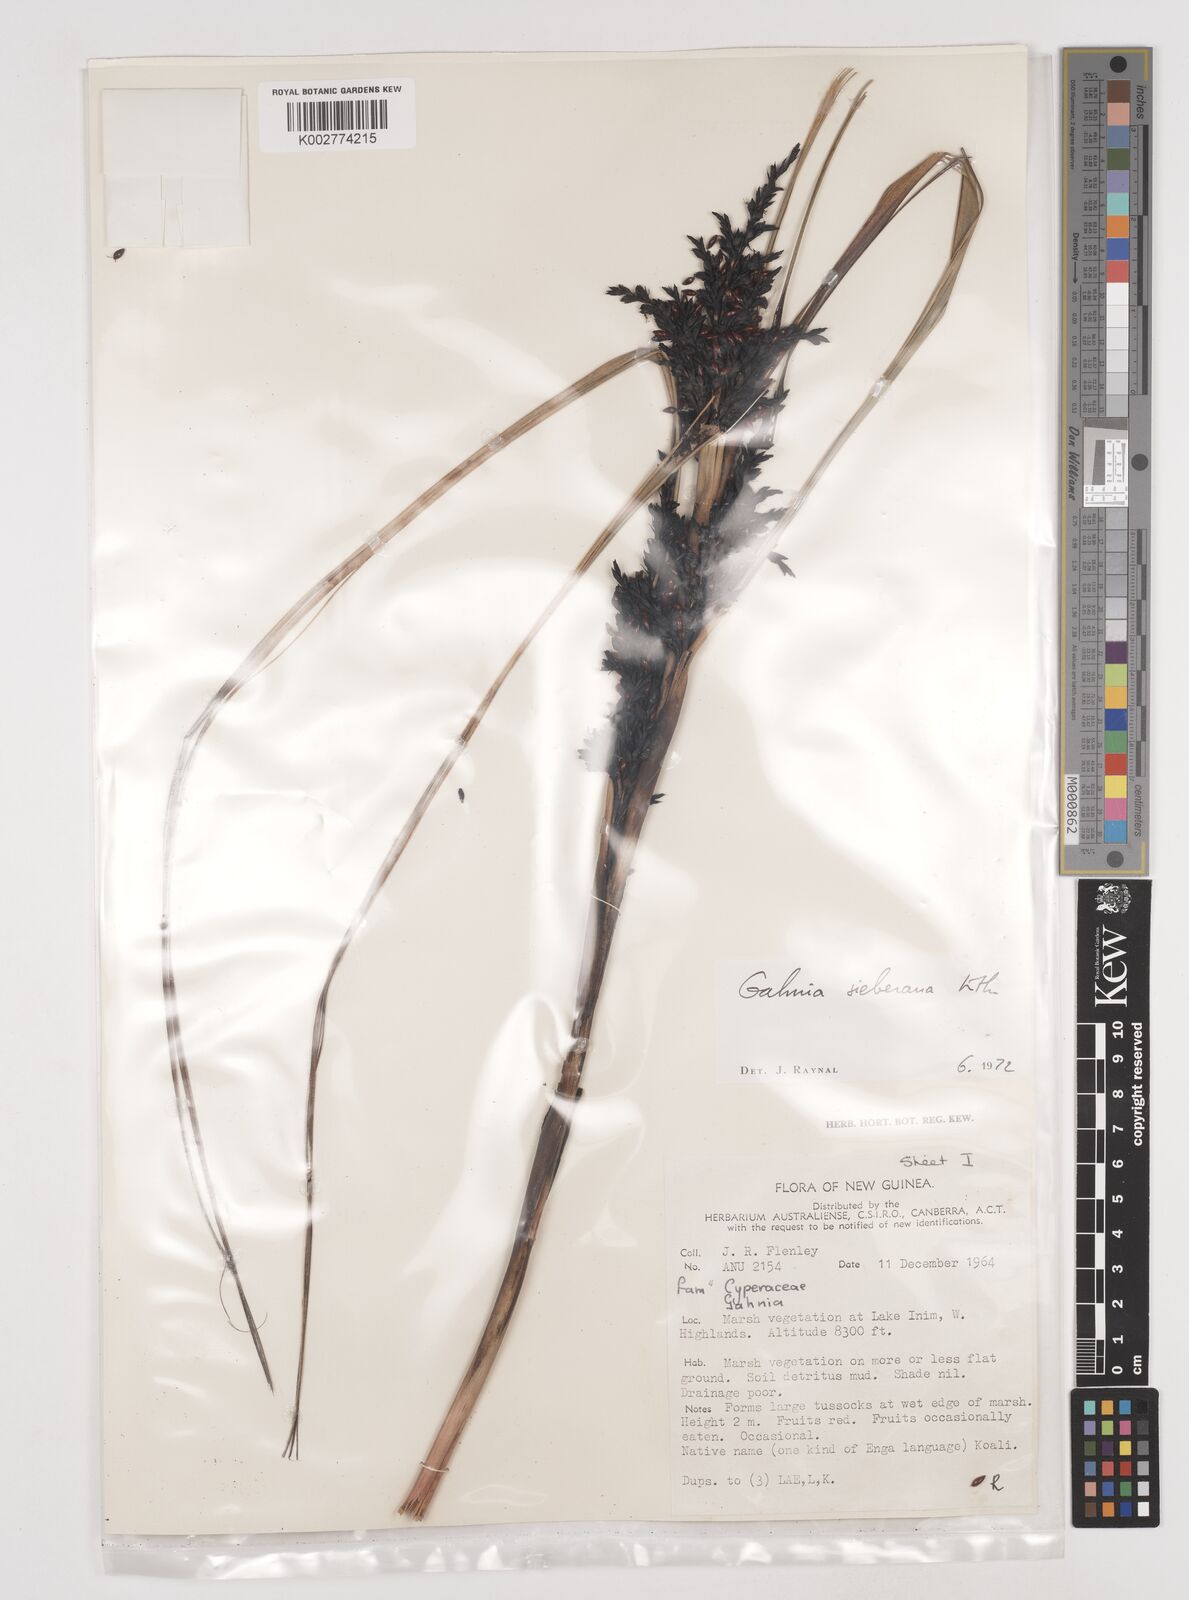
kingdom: Plantae
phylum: Tracheophyta
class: Liliopsida
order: Poales
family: Cyperaceae
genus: Gahnia
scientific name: Gahnia sieberiana
